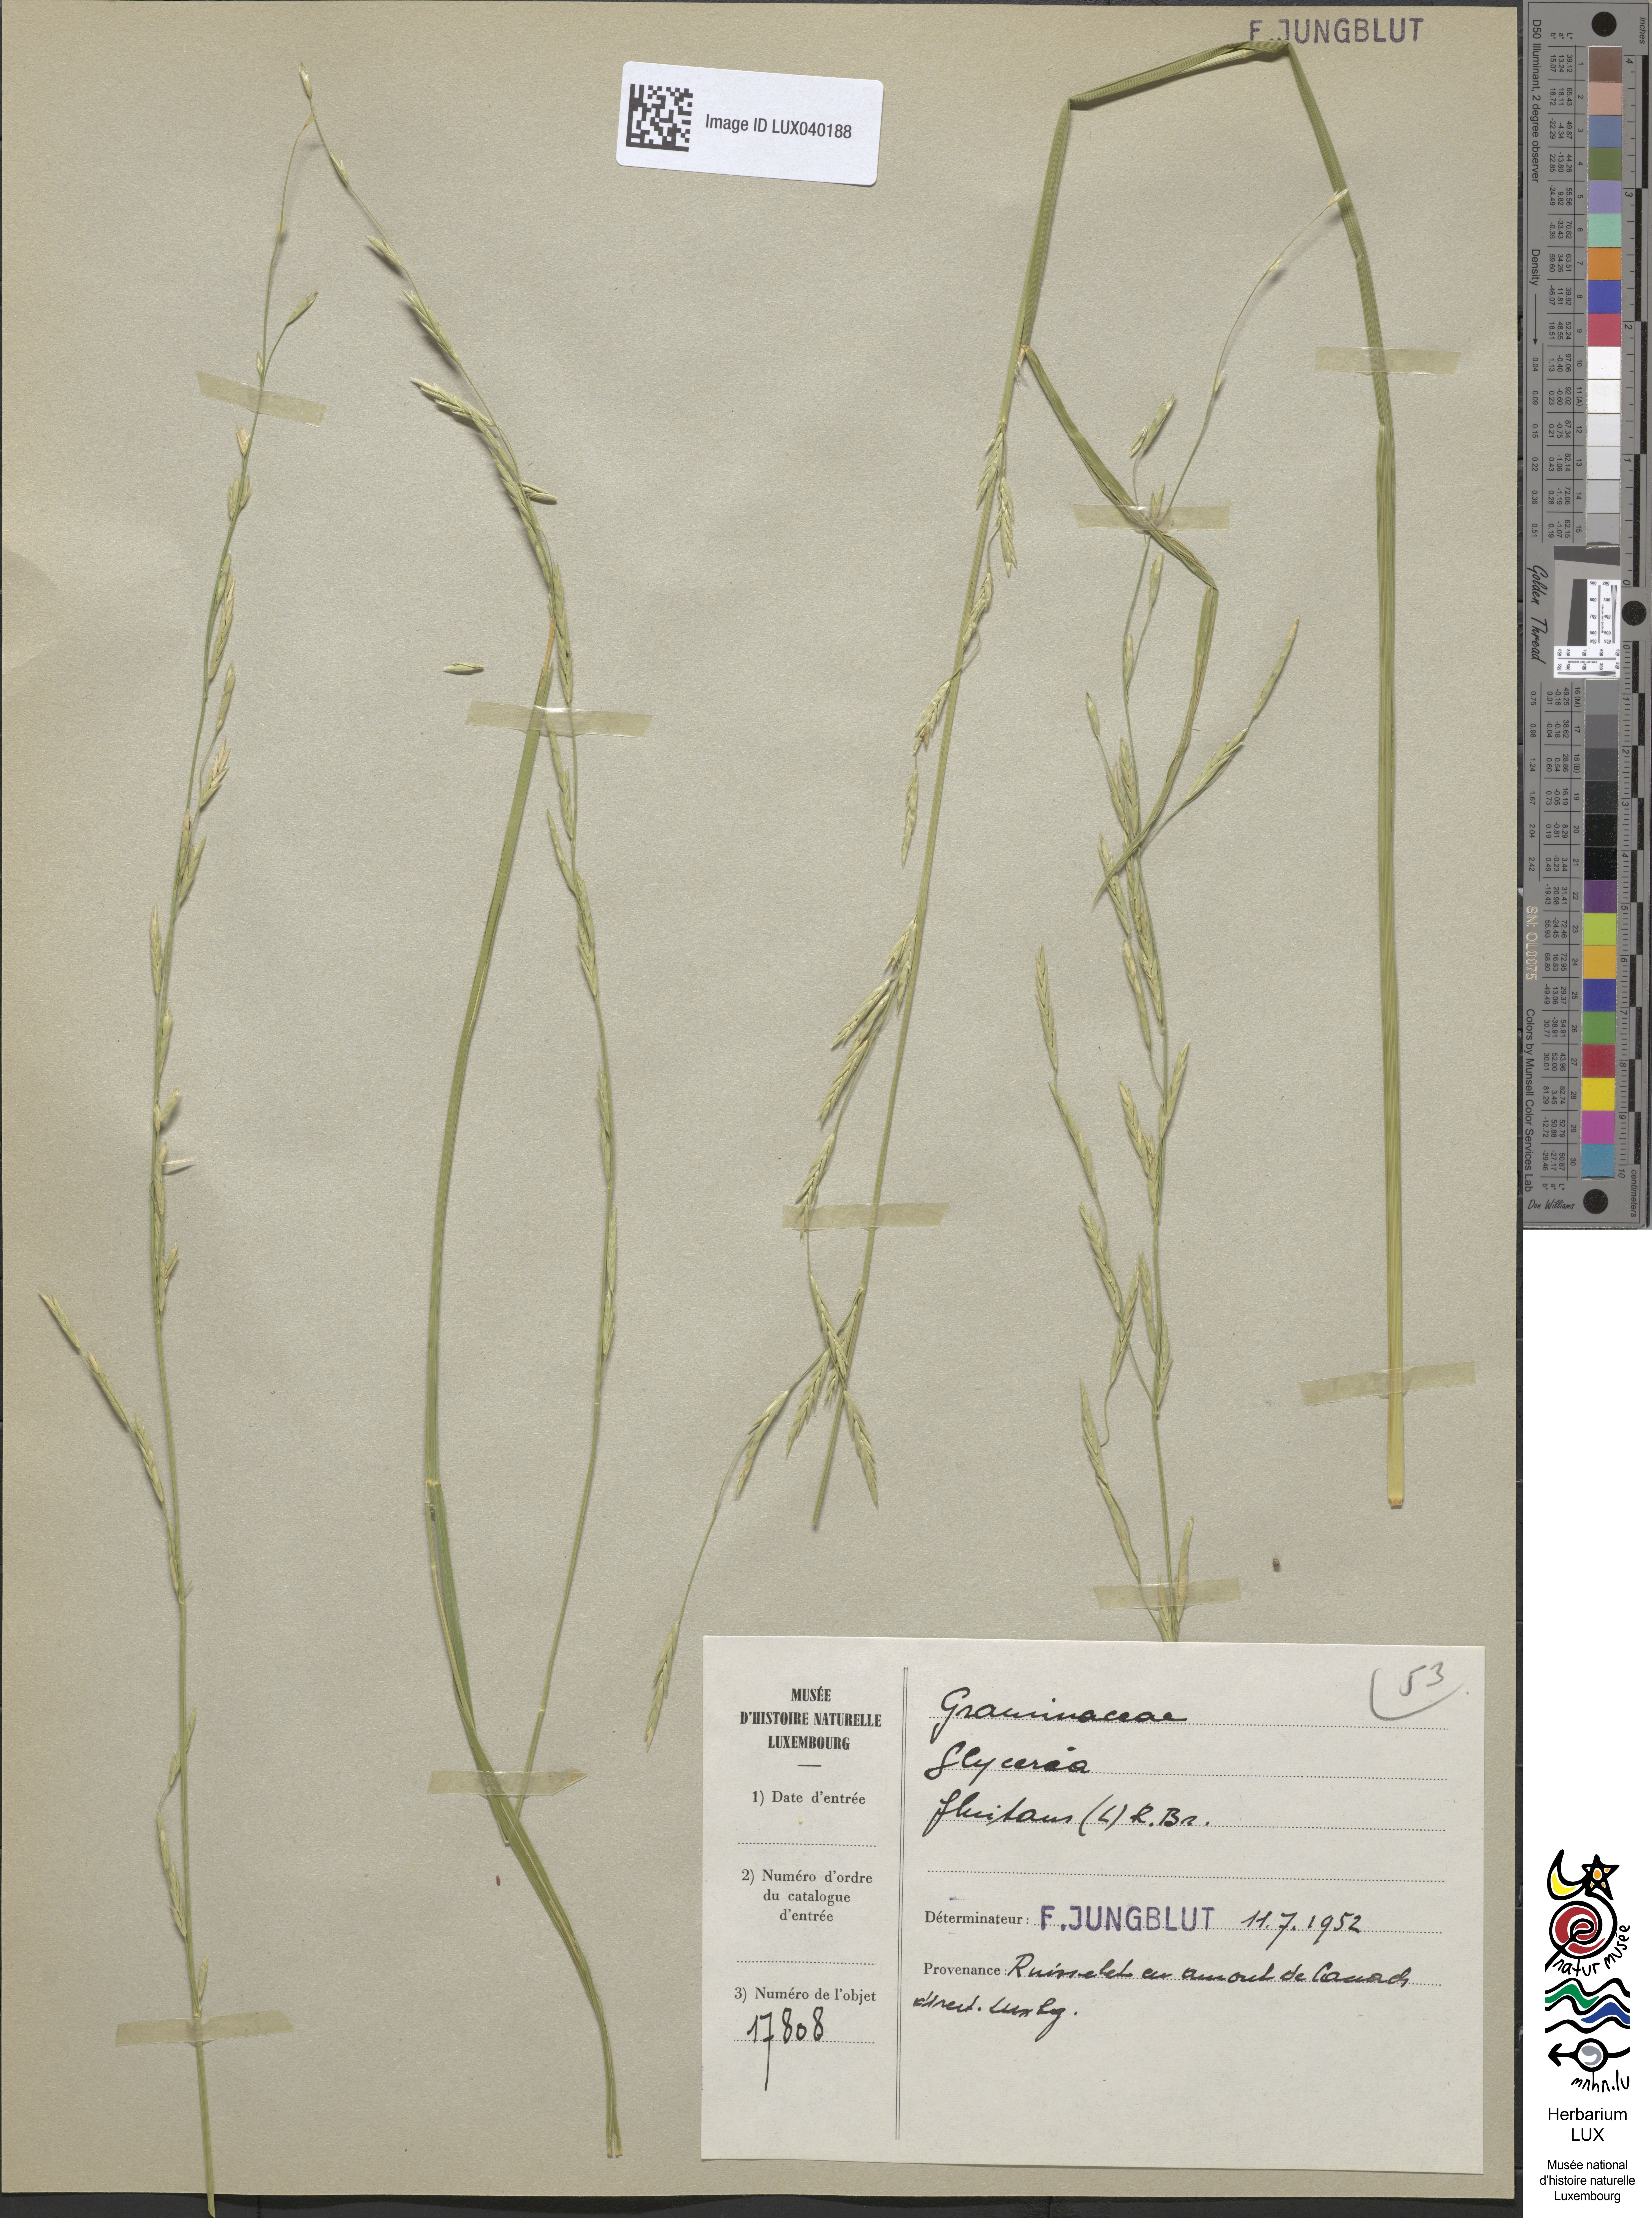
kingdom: Plantae
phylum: Tracheophyta
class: Liliopsida
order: Poales
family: Poaceae
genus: Glyceria
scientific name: Glyceria fluitans
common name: Floating sweet-grass
